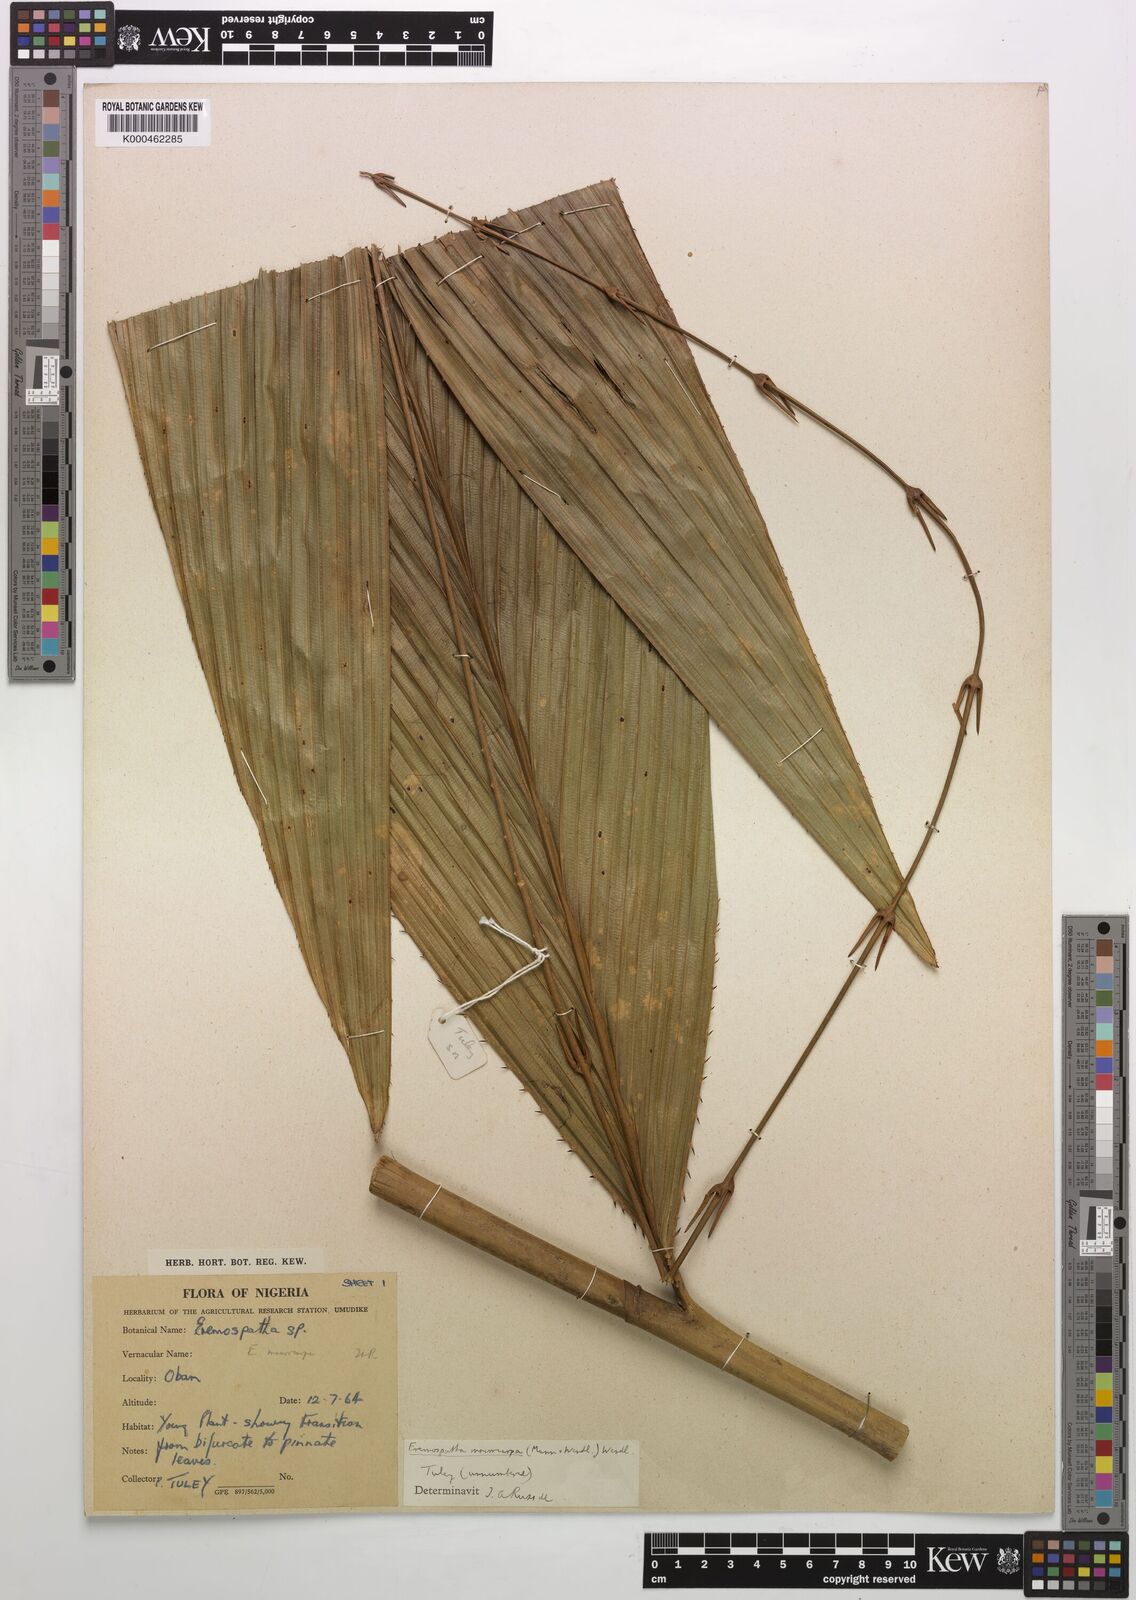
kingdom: Plantae
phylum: Tracheophyta
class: Liliopsida
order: Arecales
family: Arecaceae
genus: Eremospatha
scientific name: Eremospatha
